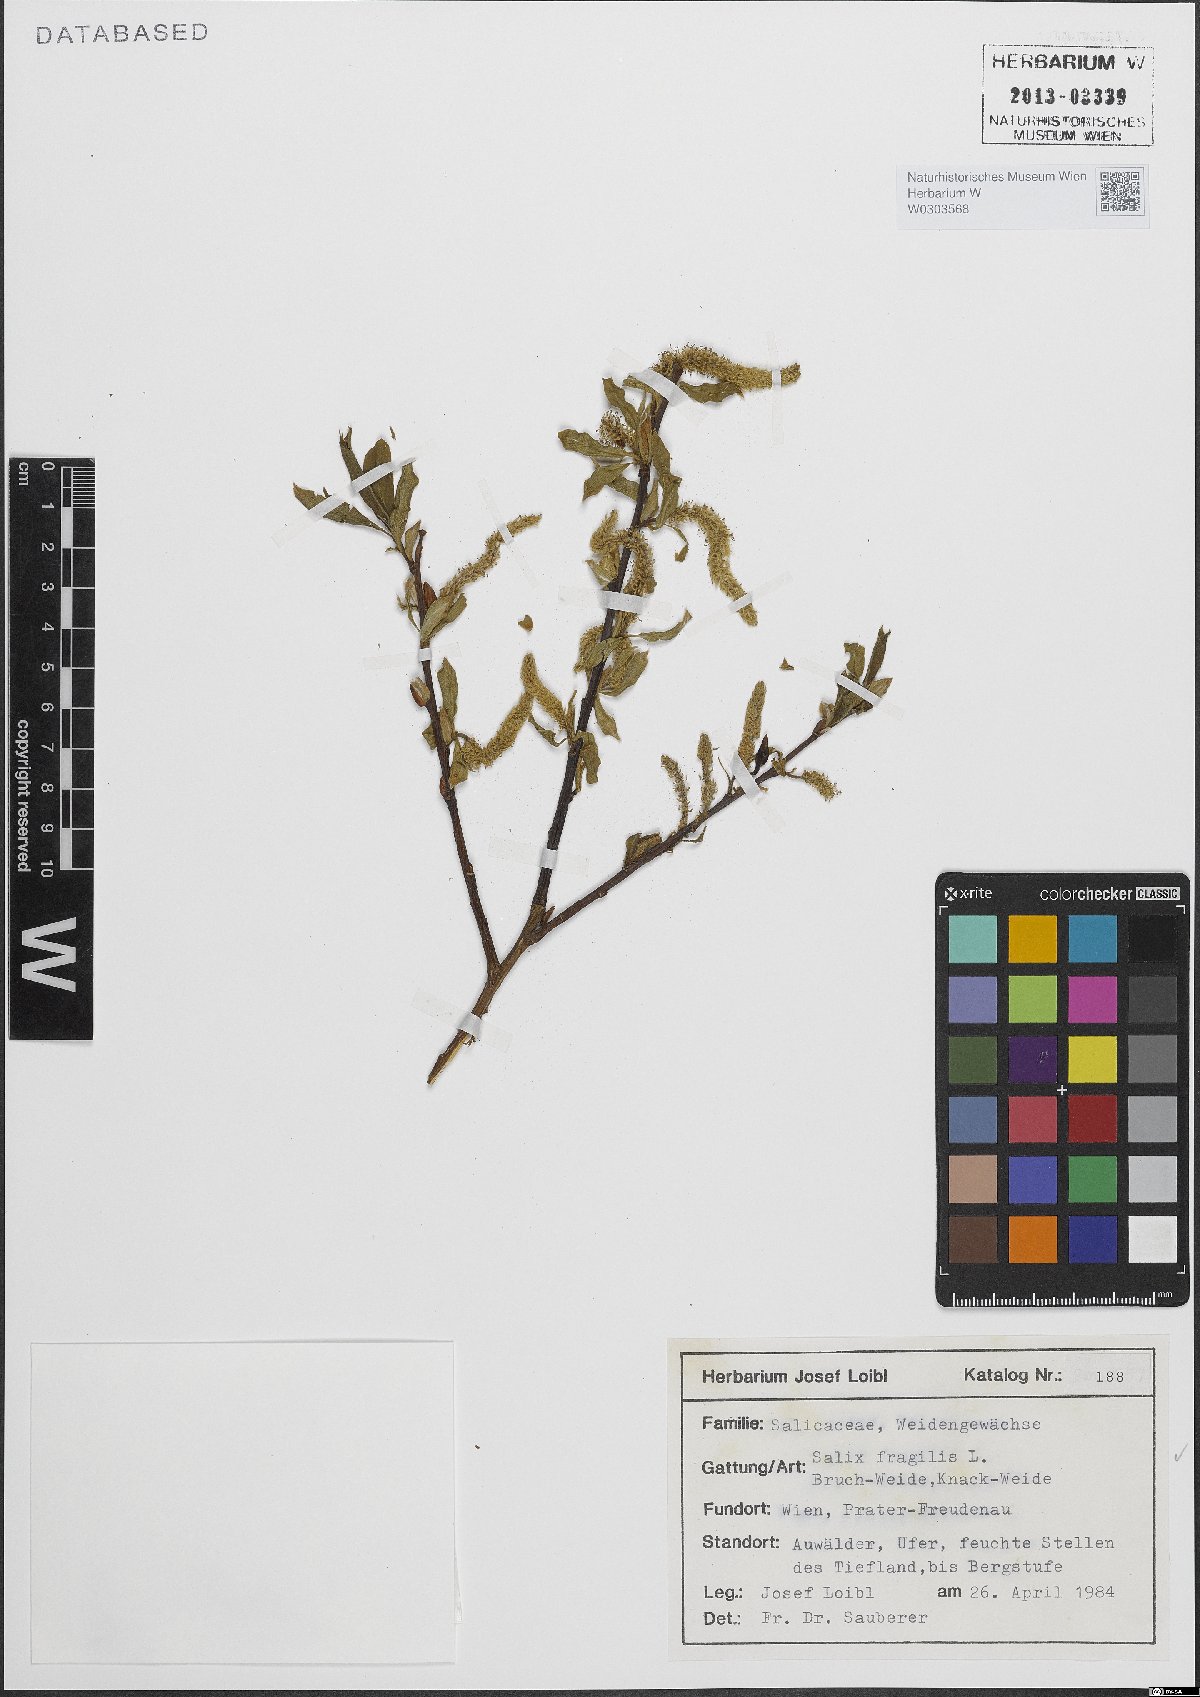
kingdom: Plantae
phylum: Tracheophyta
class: Magnoliopsida
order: Malpighiales
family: Salicaceae
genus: Salix
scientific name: Salix fragilis
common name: Crack willow
